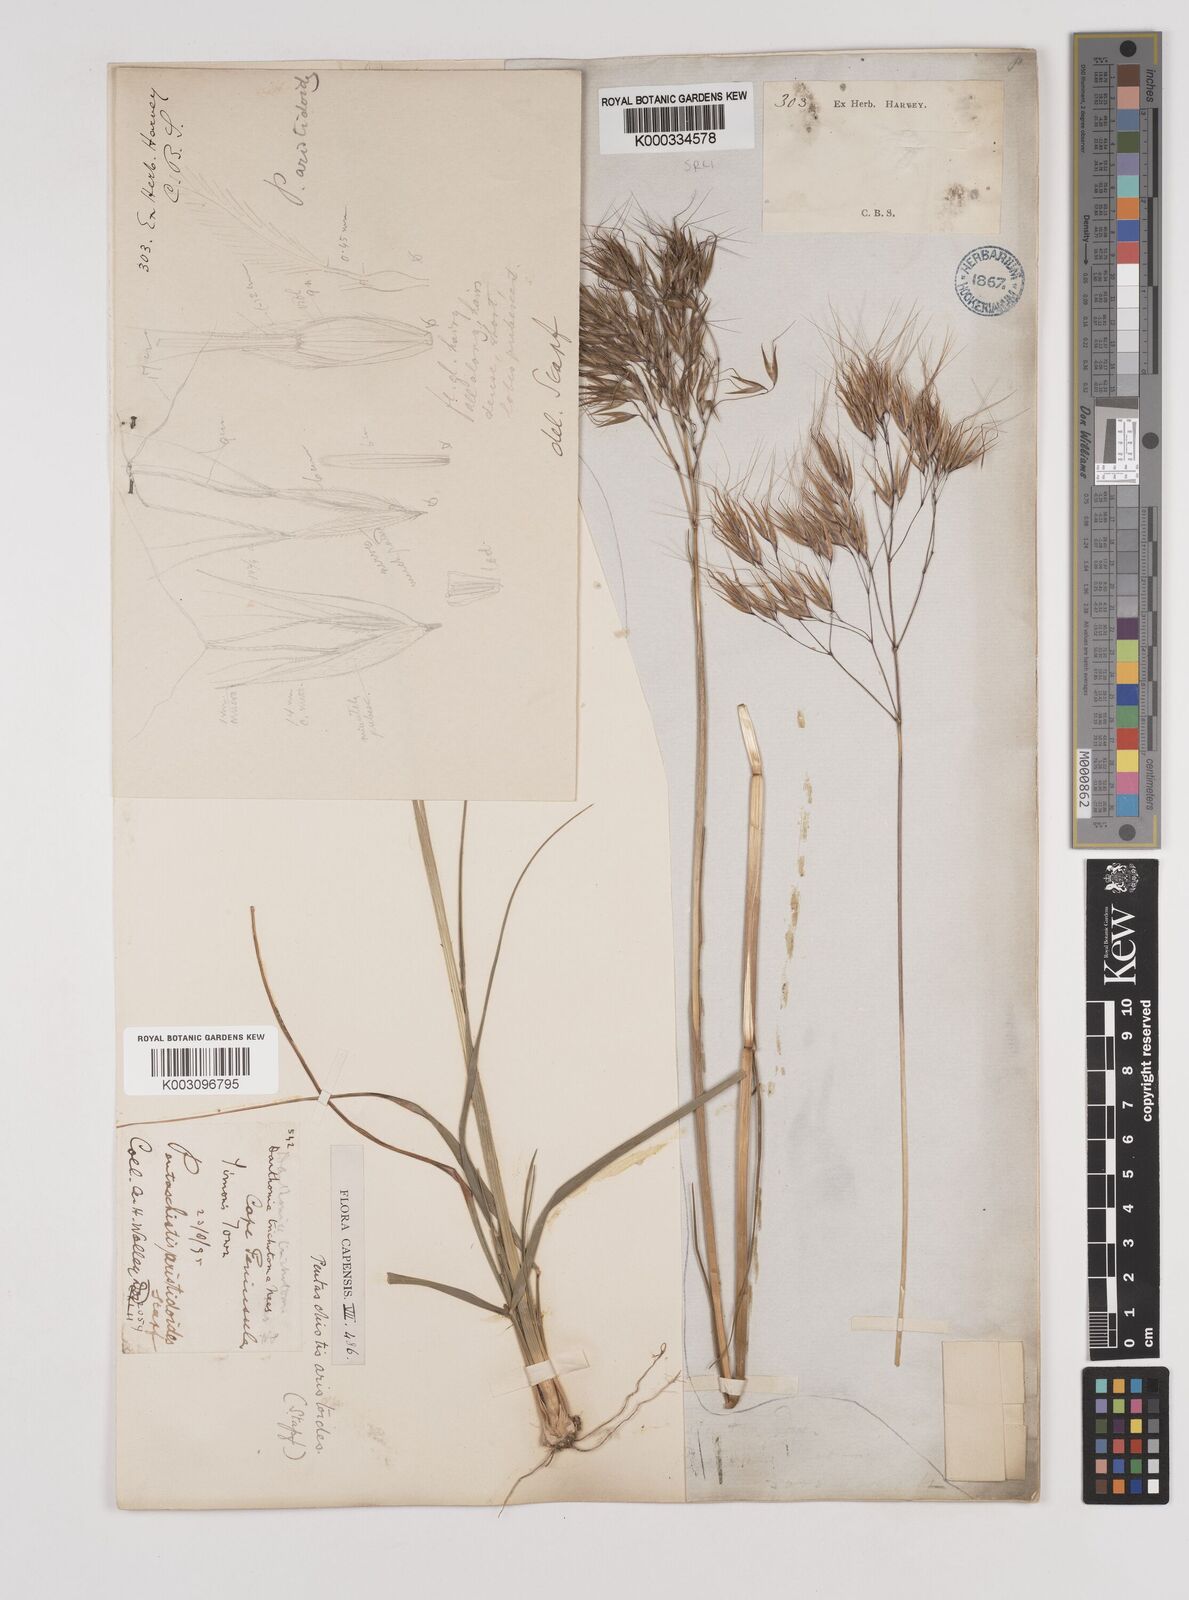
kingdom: Plantae
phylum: Tracheophyta
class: Liliopsida
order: Poales
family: Poaceae
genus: Pentameris
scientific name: Pentameris aristidoides
